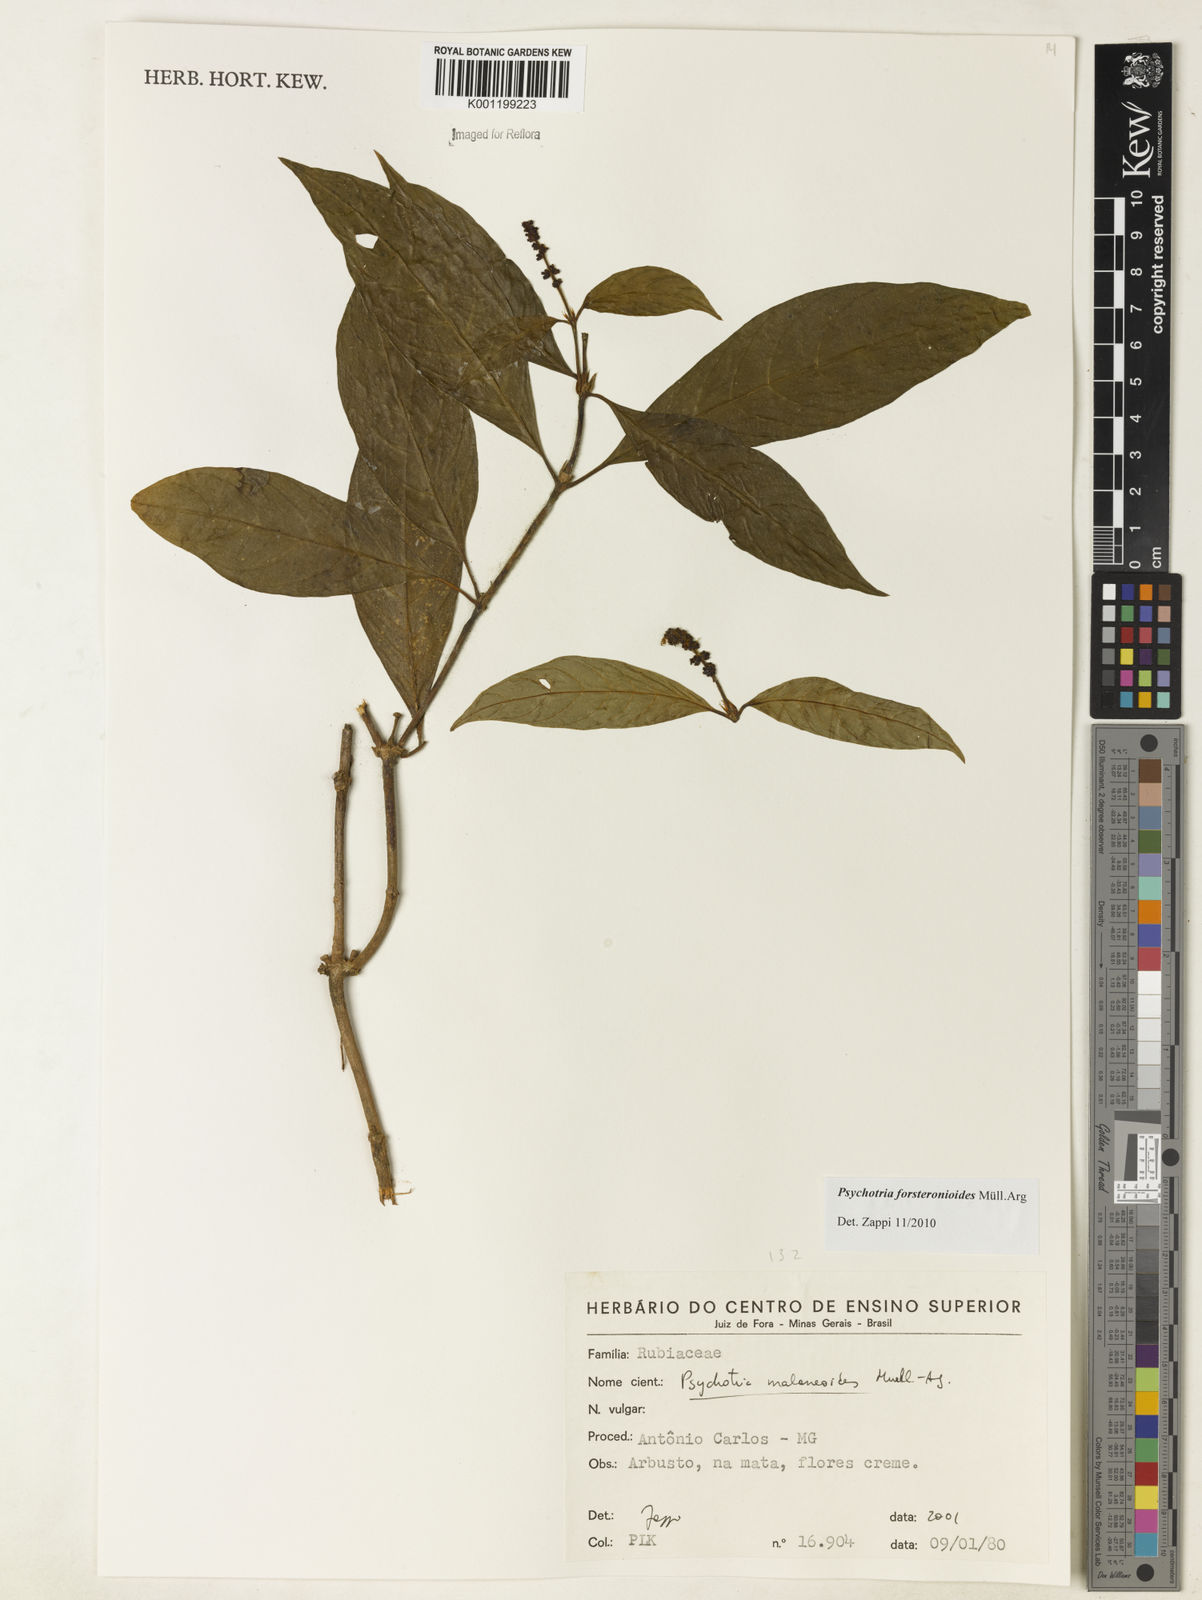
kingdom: Plantae
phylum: Tracheophyta
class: Magnoliopsida
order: Gentianales
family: Rubiaceae
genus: Psychotria
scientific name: Psychotria
